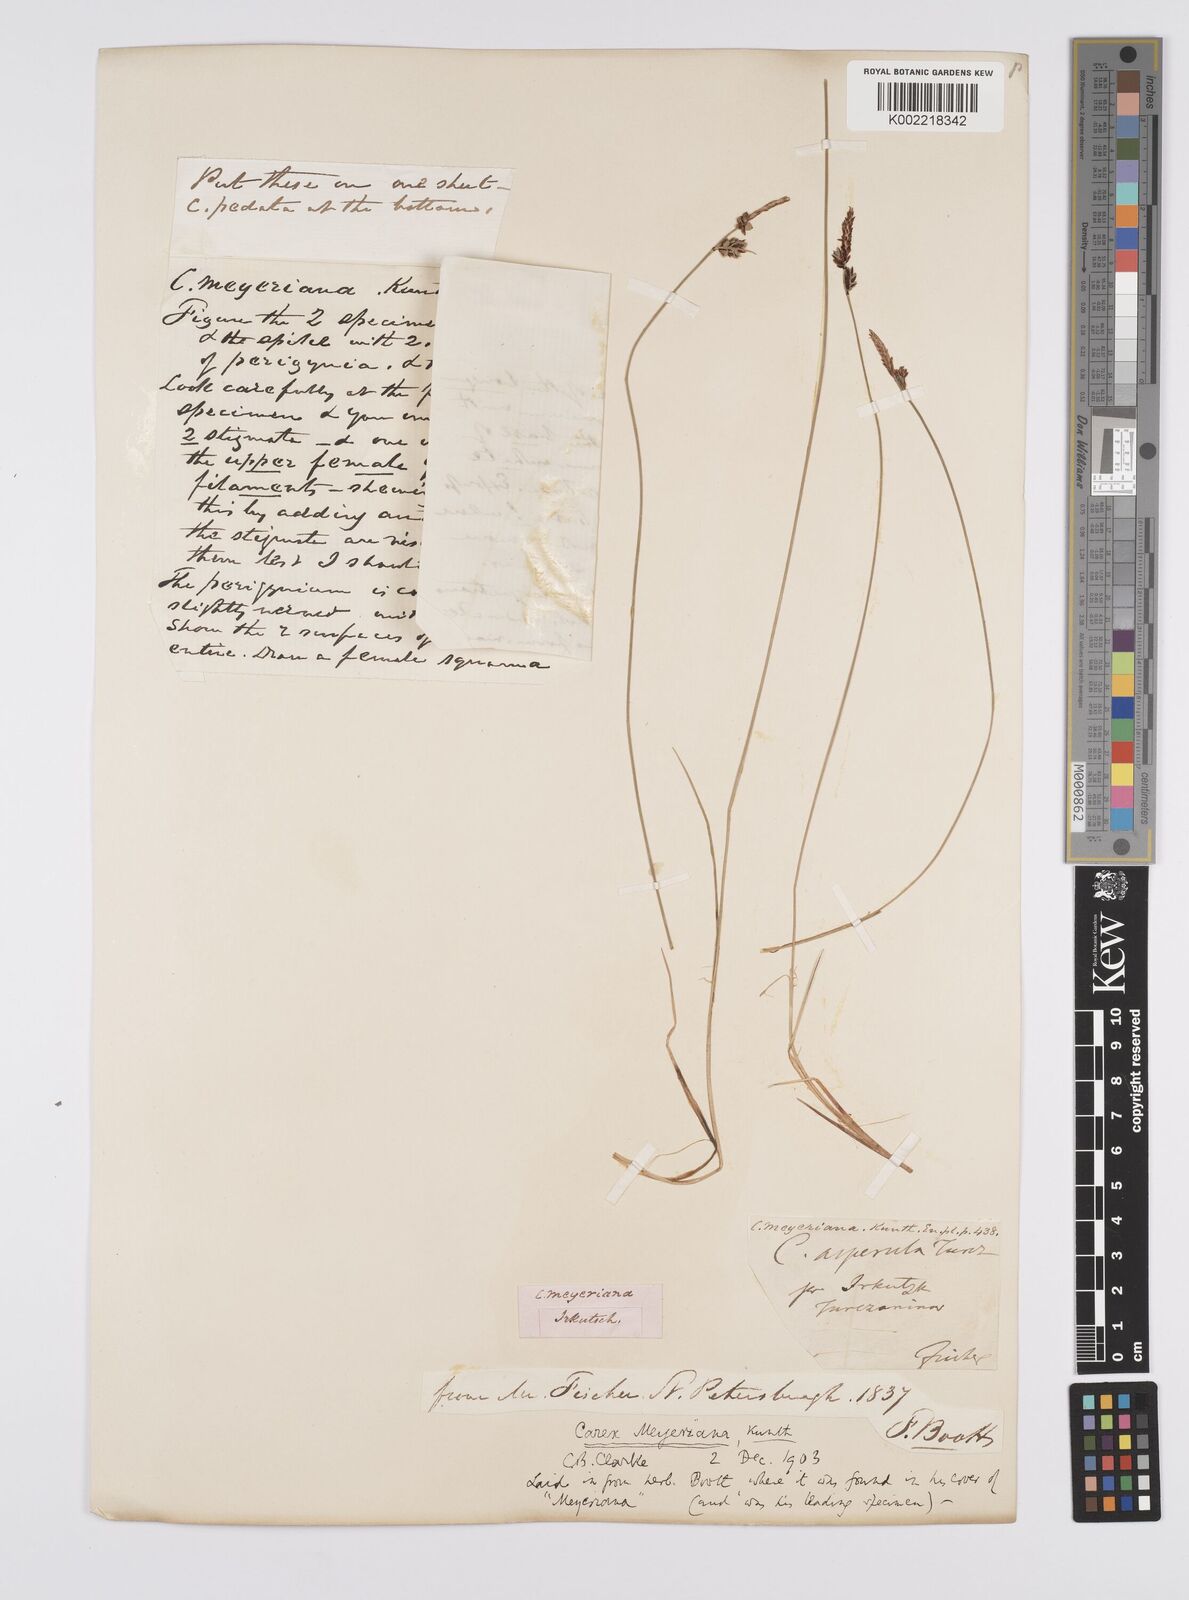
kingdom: Plantae
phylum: Tracheophyta
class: Liliopsida
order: Poales
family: Cyperaceae
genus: Carex
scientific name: Carex meyeriana
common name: Wula sedge
